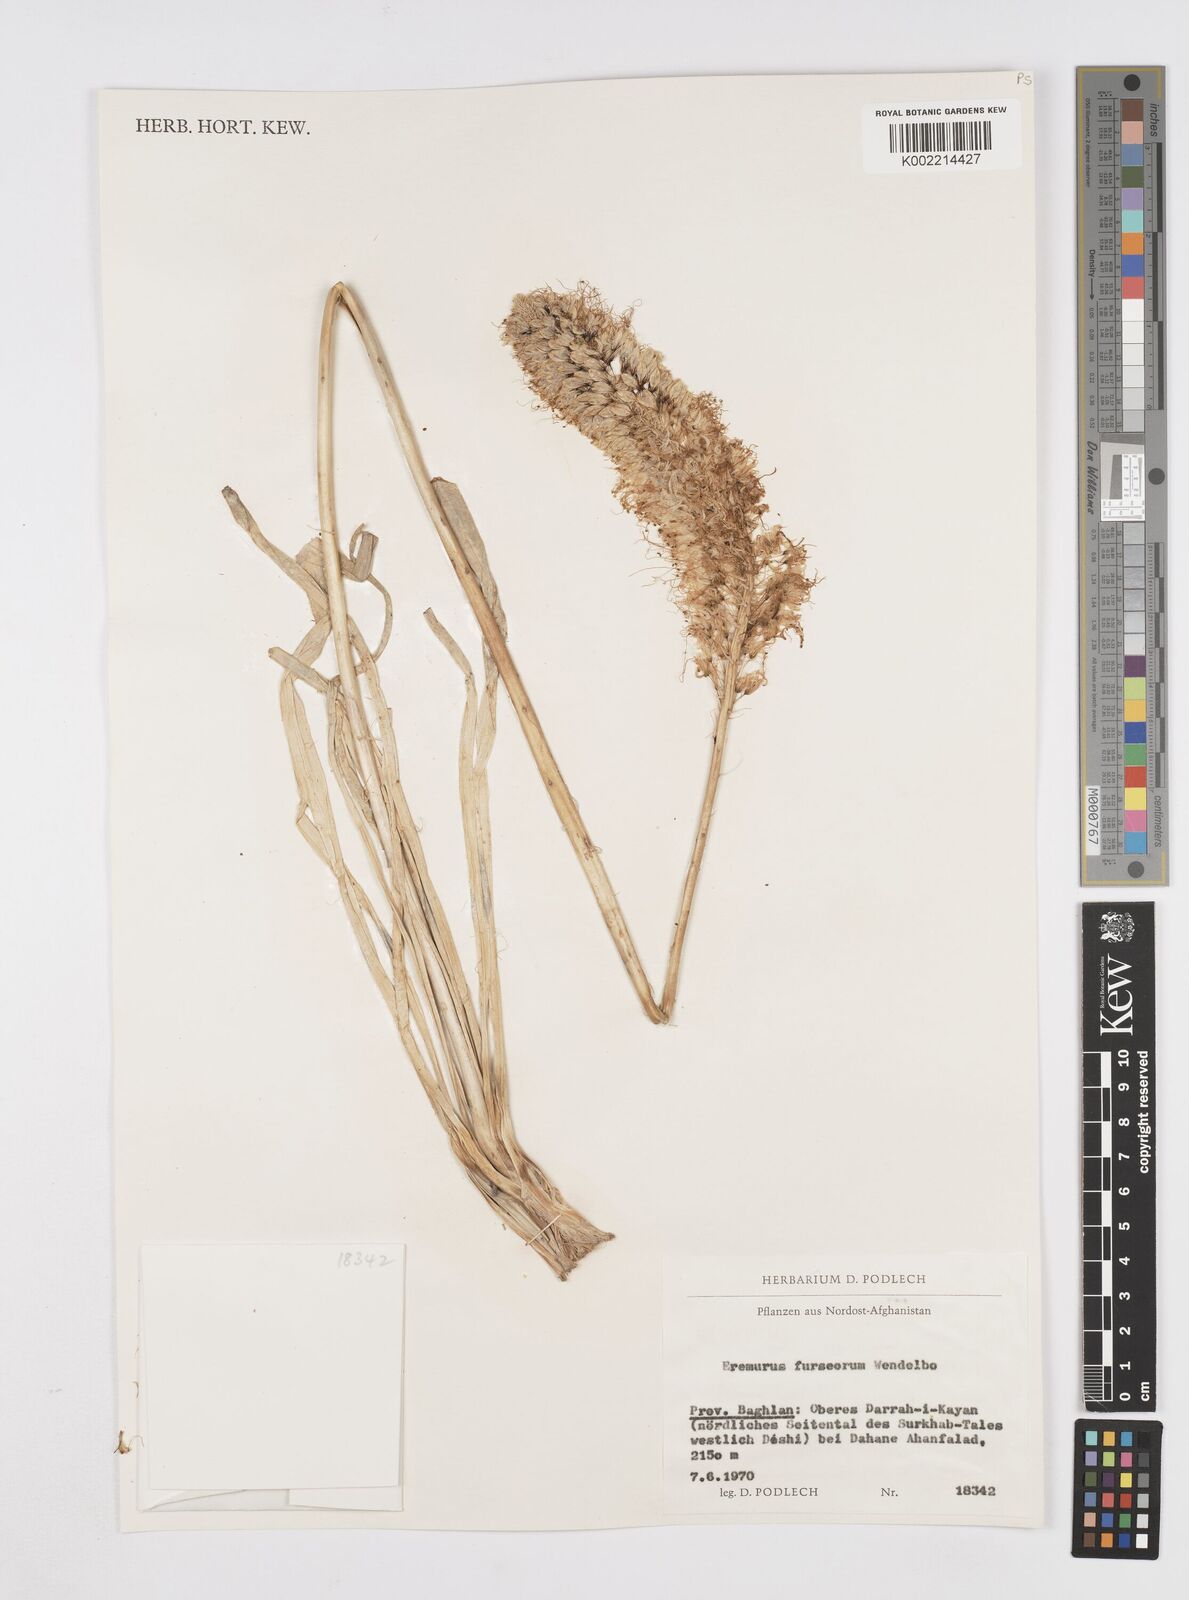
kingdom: Plantae
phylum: Tracheophyta
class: Liliopsida
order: Asparagales
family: Asphodelaceae
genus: Eremurus
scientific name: Eremurus furseorum
